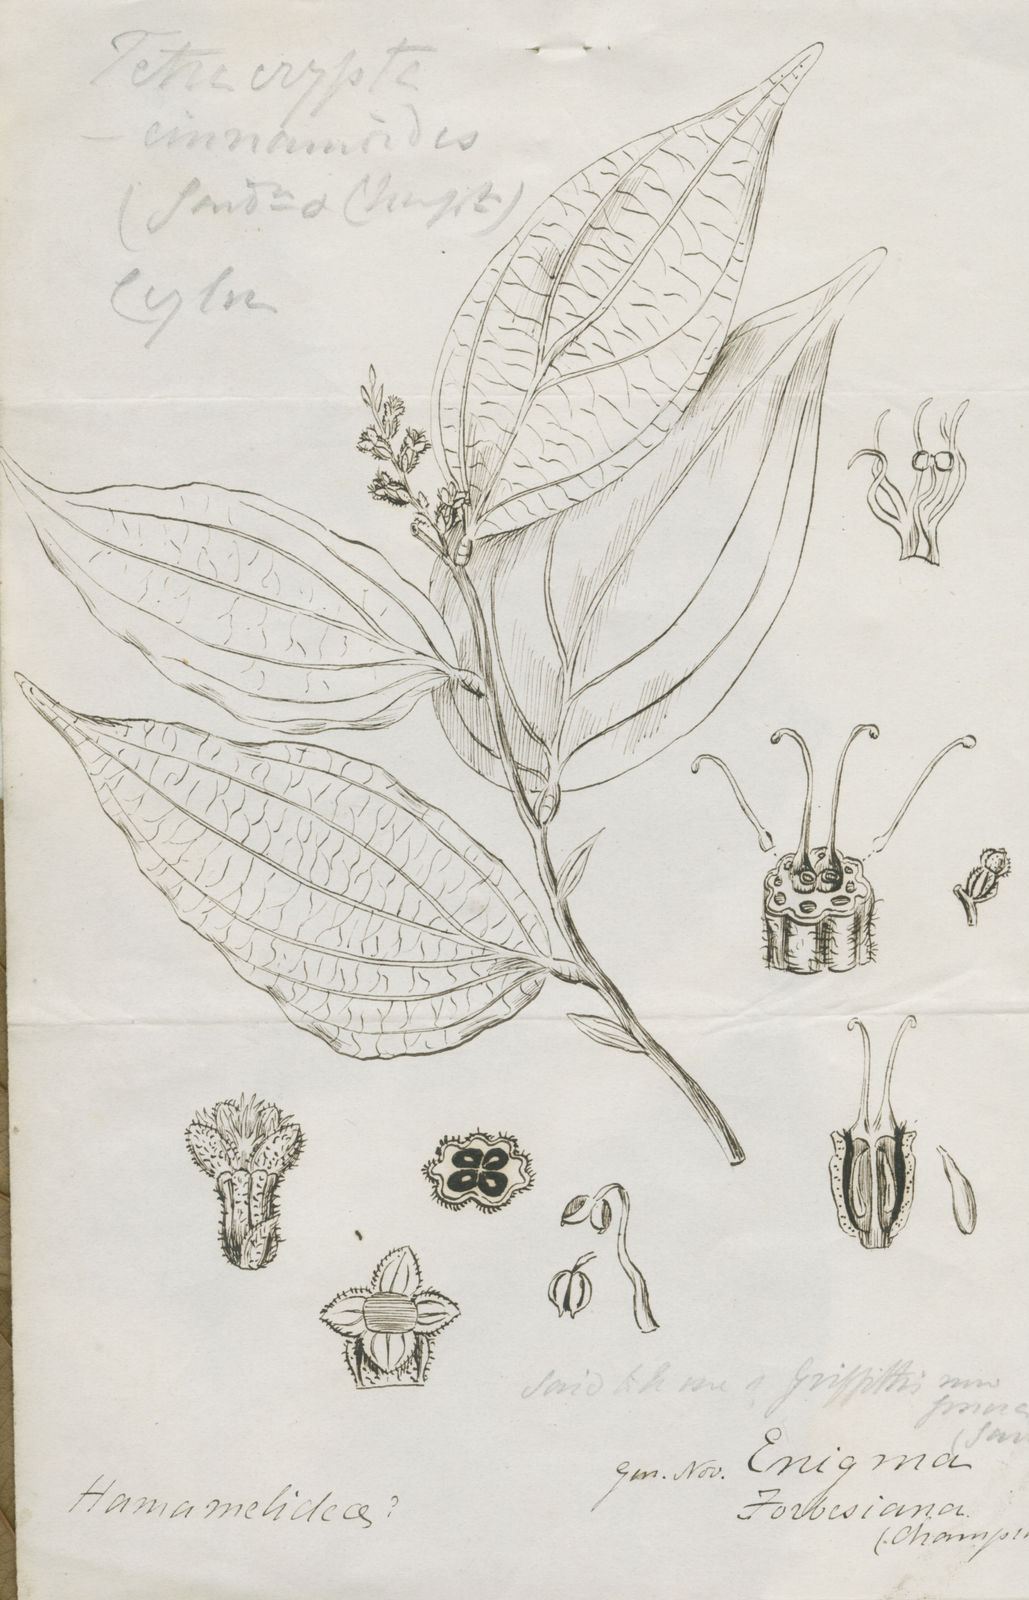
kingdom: Plantae
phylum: Tracheophyta
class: Magnoliopsida
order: Cucurbitales
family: Anisophylleaceae
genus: Anisophyllea
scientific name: Anisophyllea cinnamomoides
